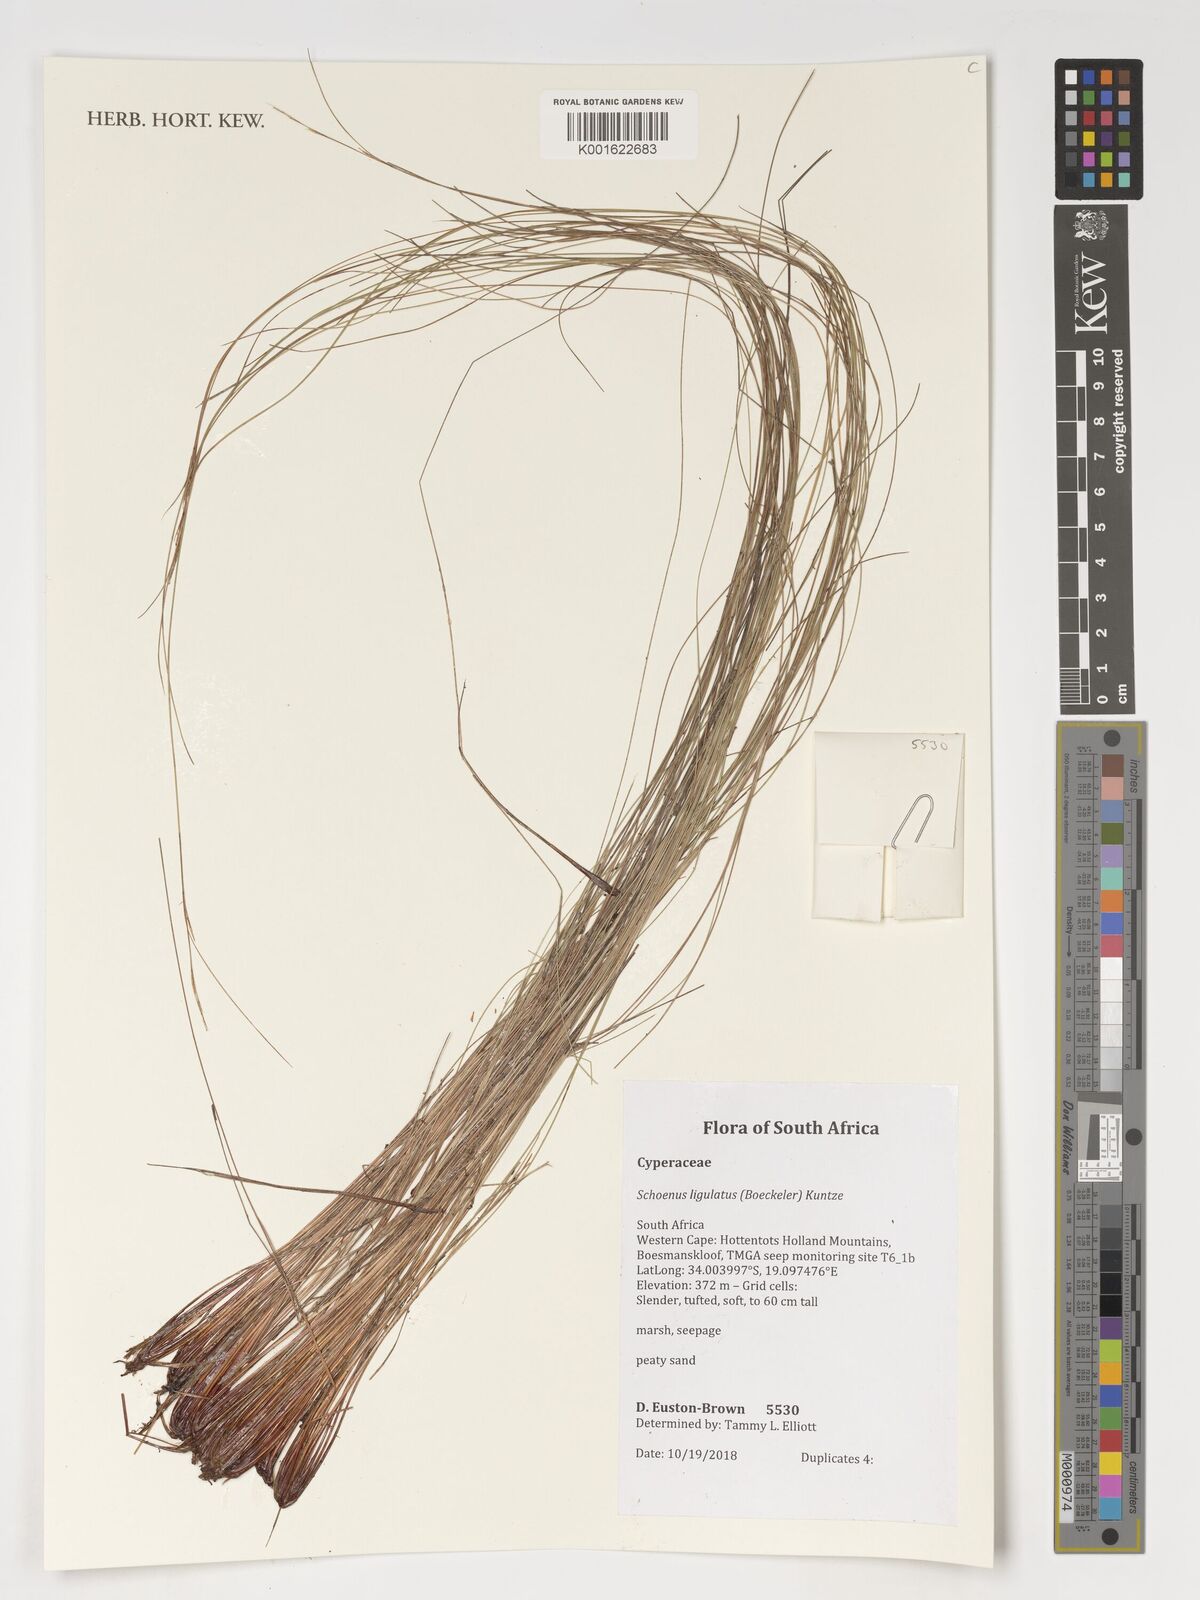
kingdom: Plantae
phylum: Tracheophyta
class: Liliopsida
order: Poales
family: Cyperaceae
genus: Schoenus
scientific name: Schoenus ligulatus
